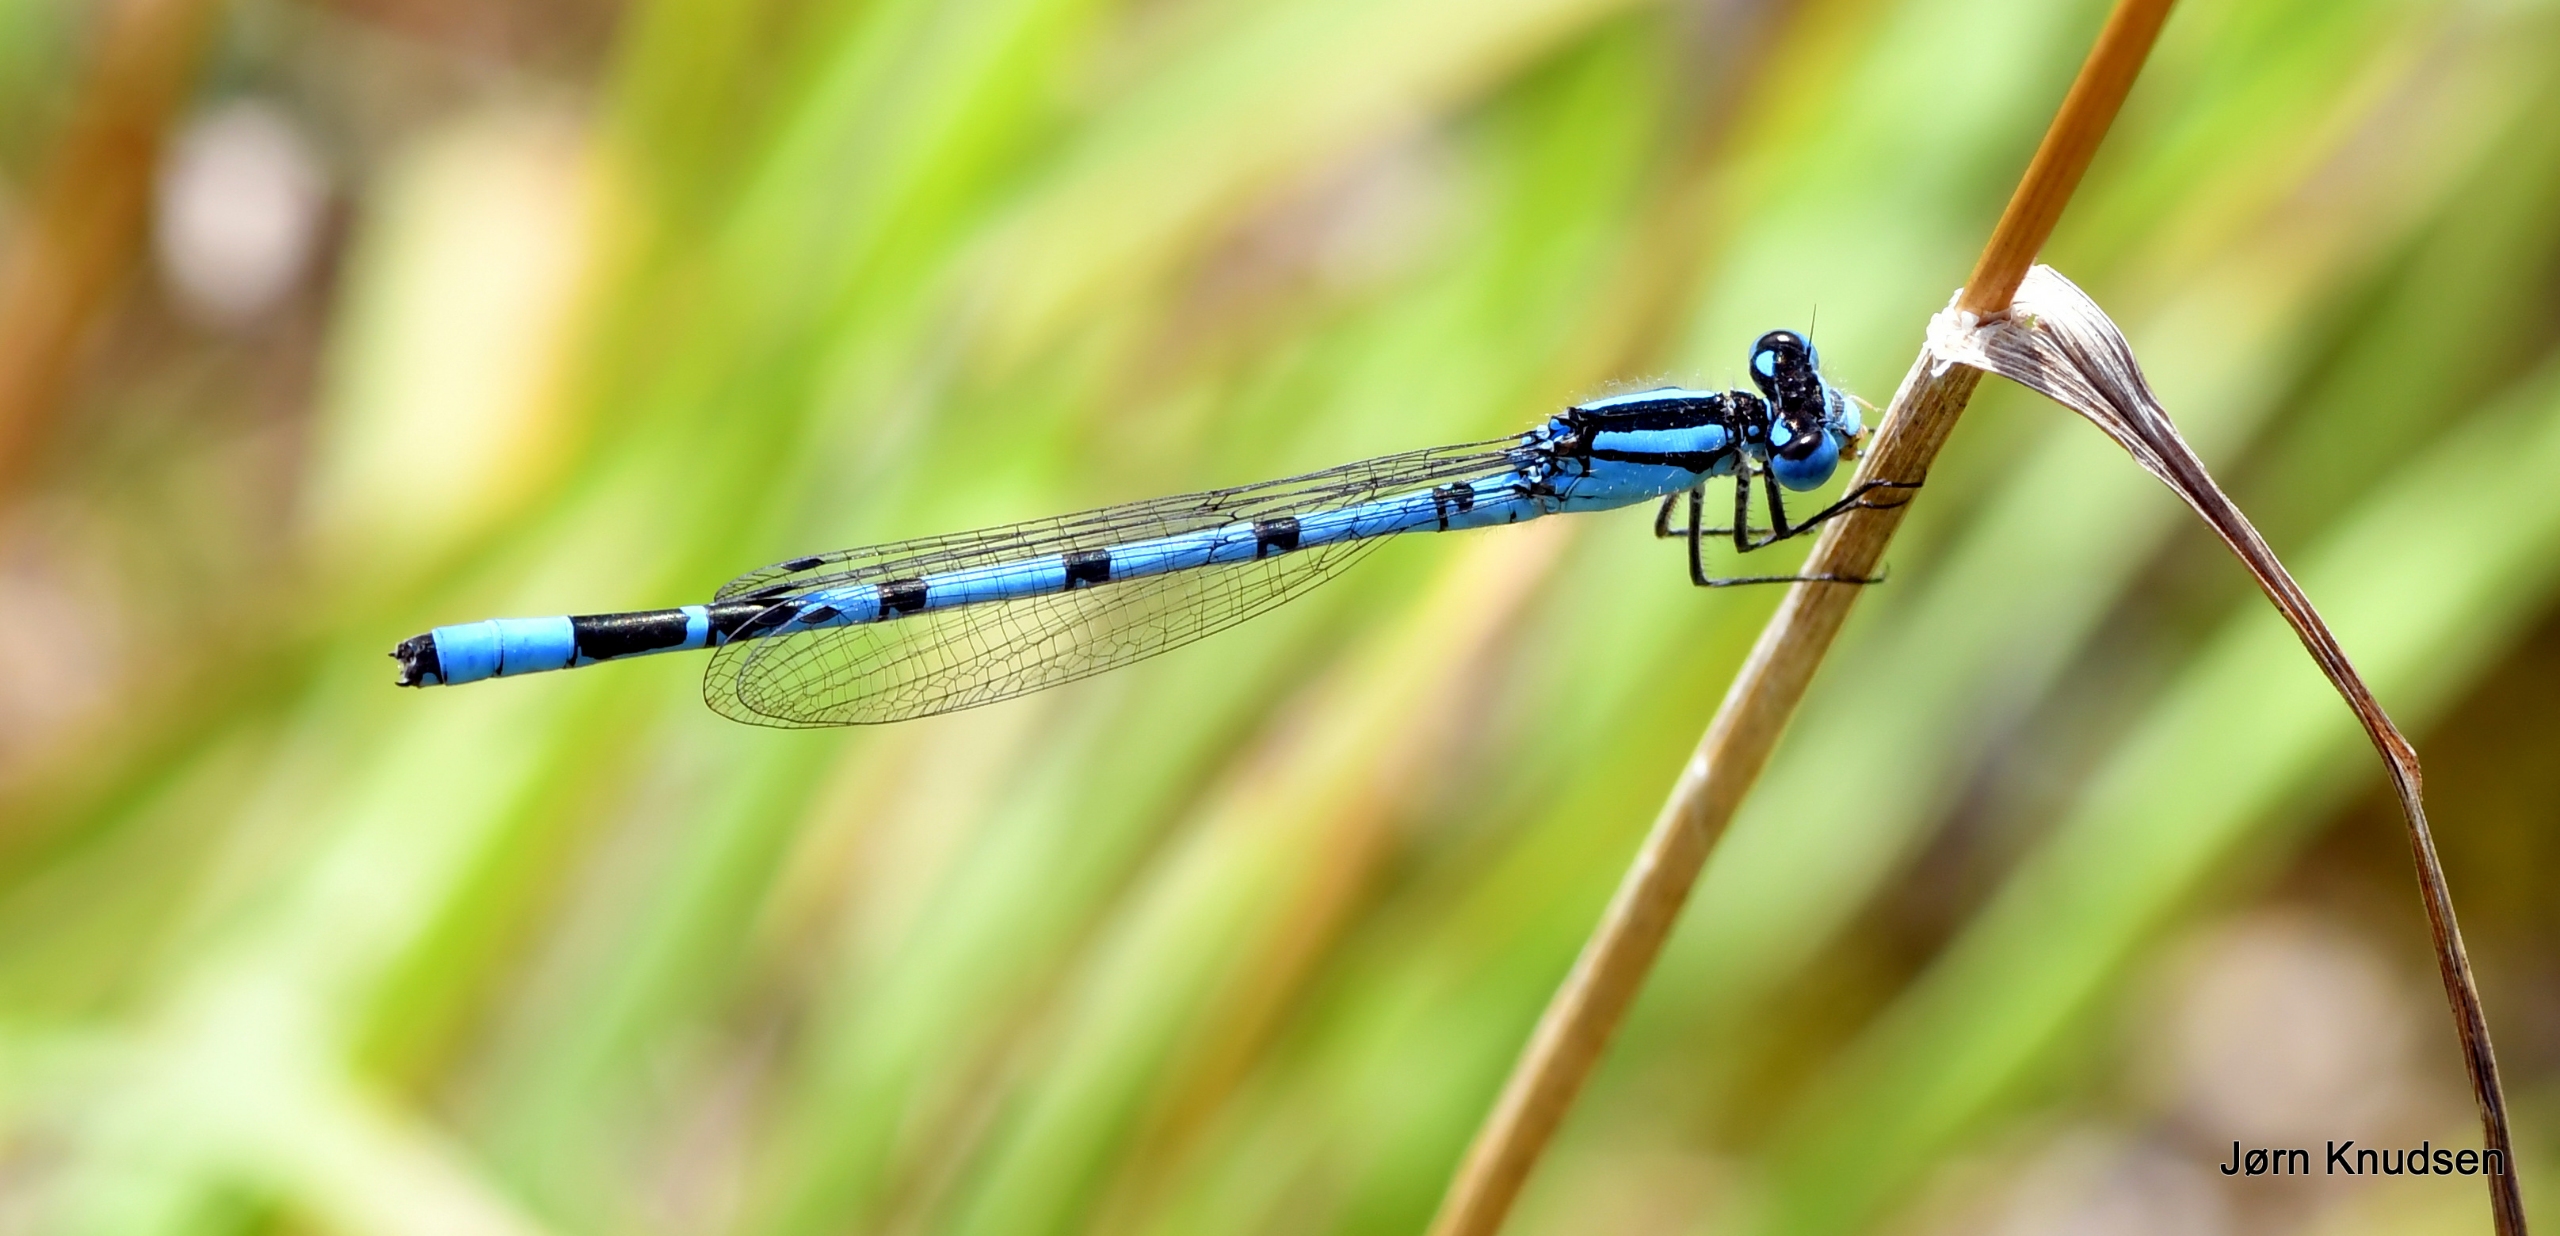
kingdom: Animalia
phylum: Arthropoda
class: Insecta
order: Odonata
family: Coenagrionidae
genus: Enallagma
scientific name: Enallagma cyathigerum
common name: Almindelig vandnymfe
